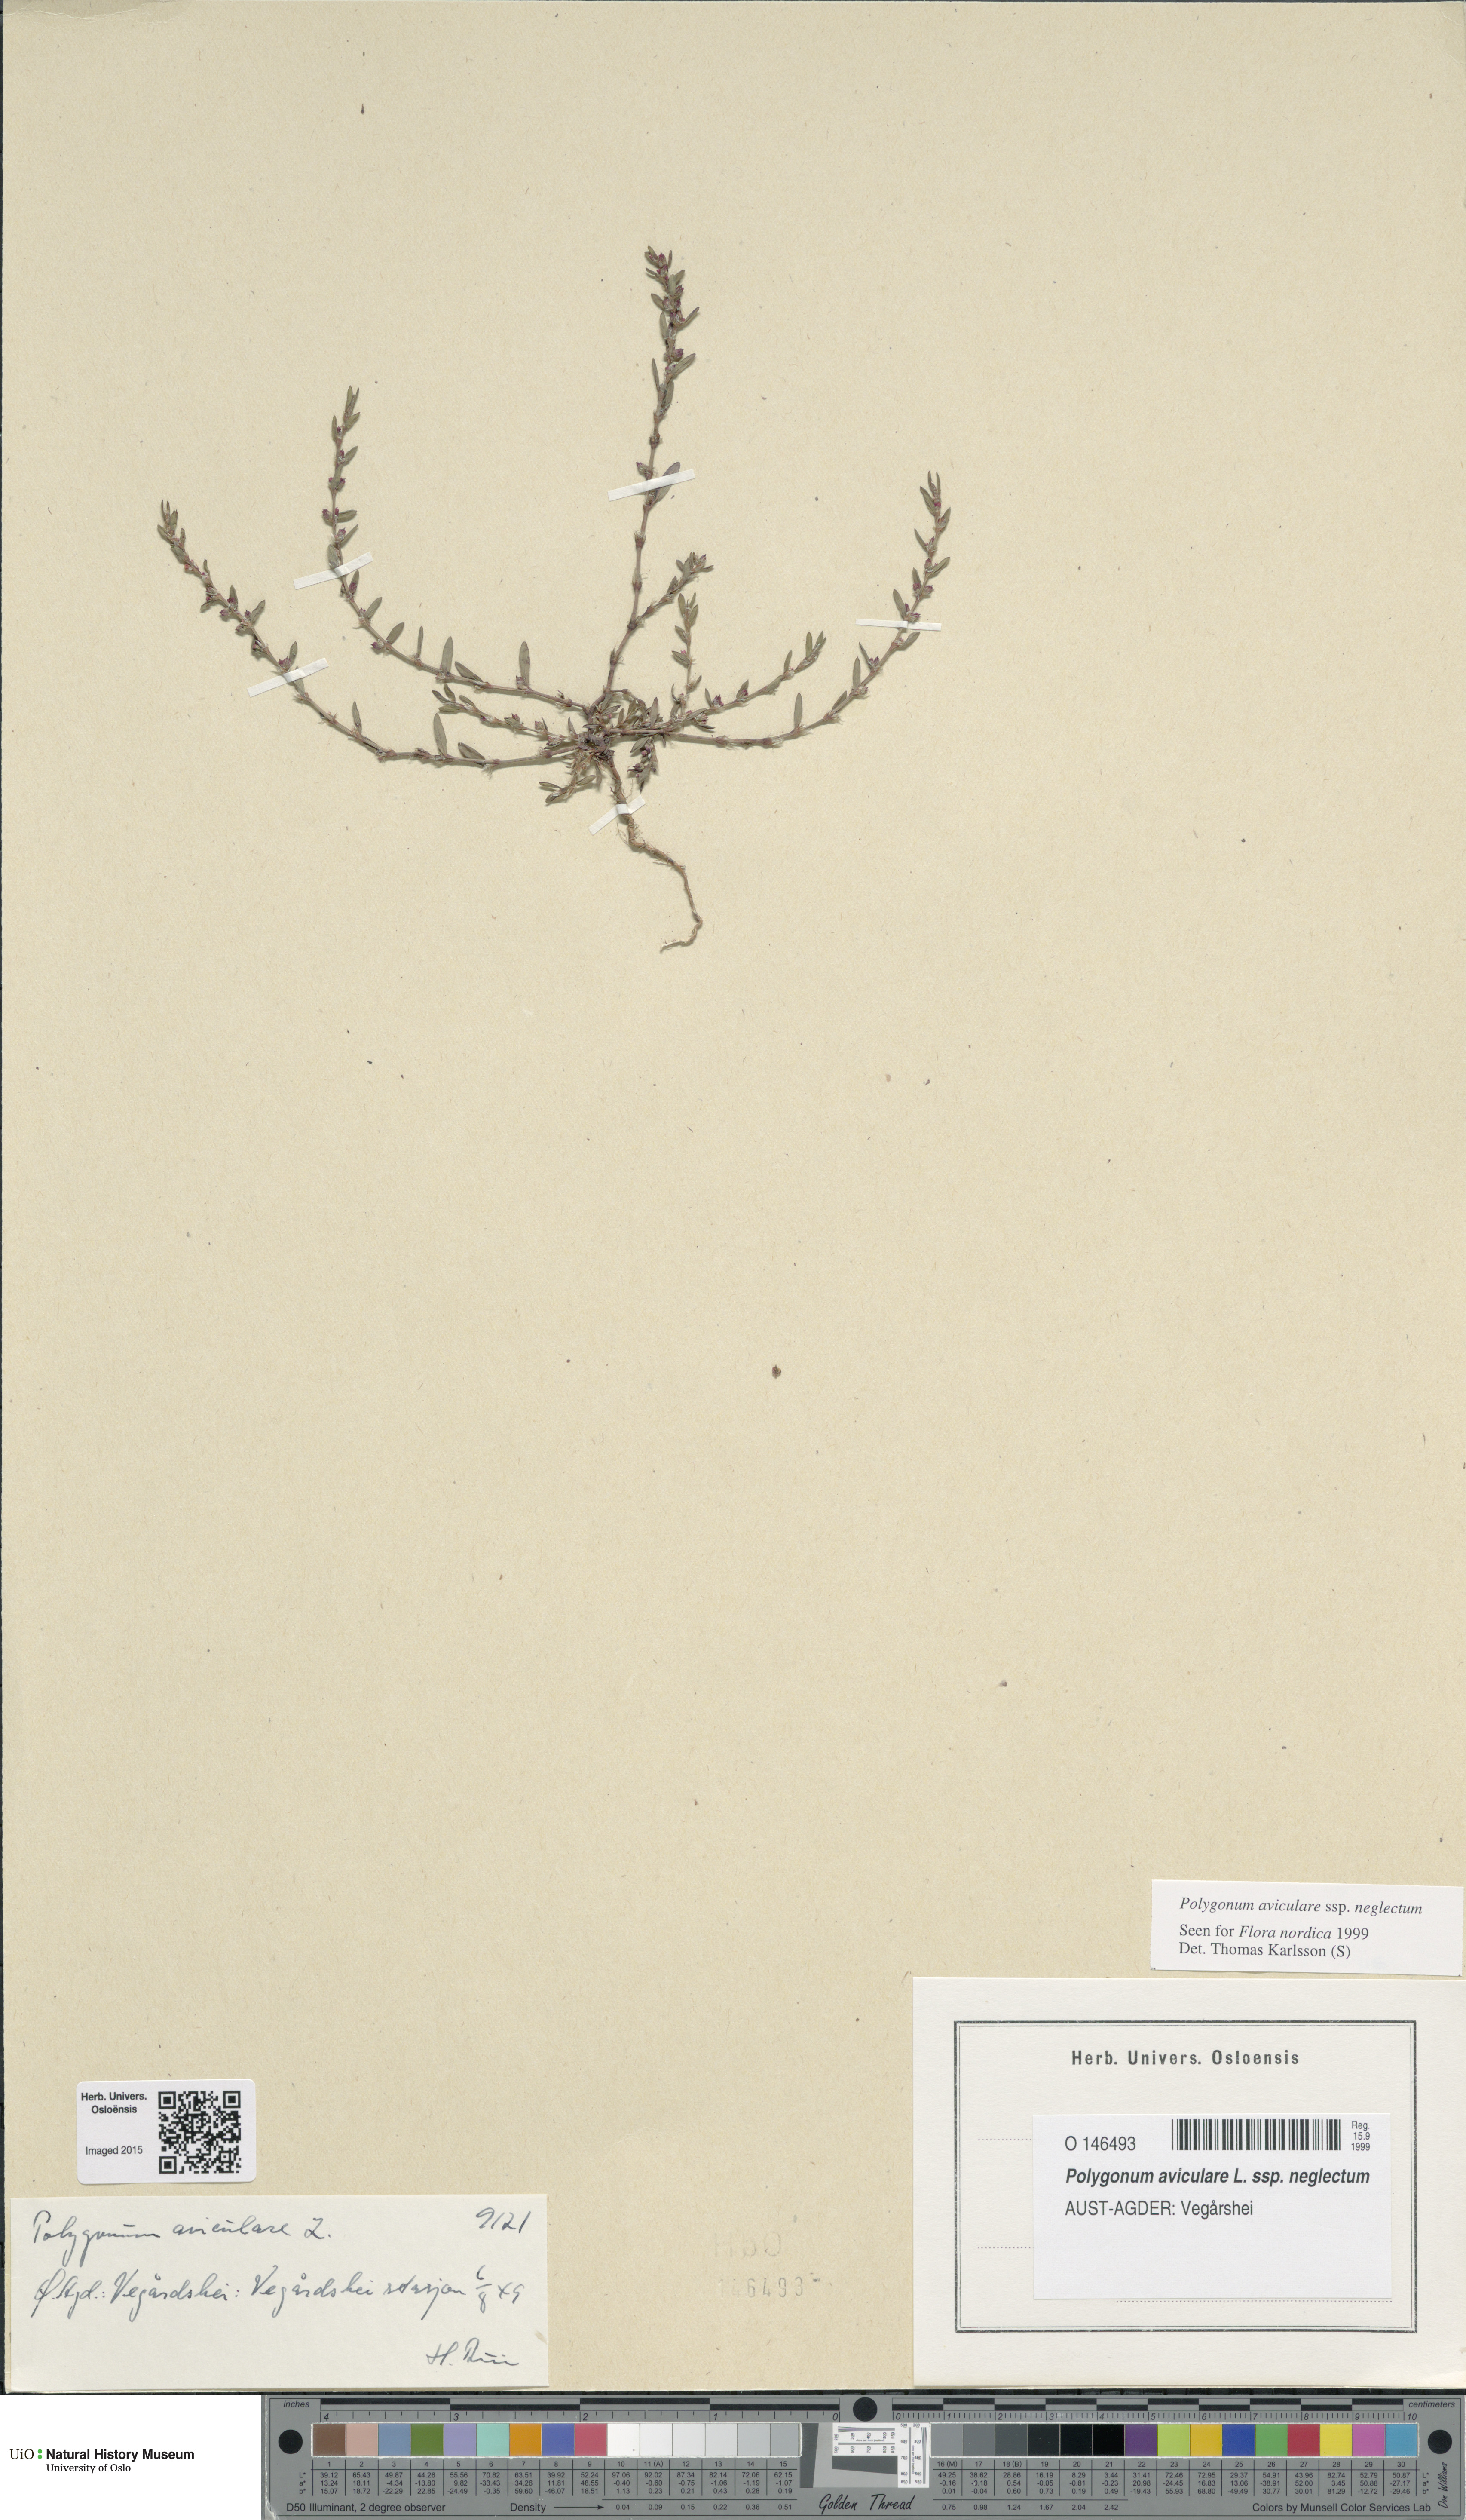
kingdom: Plantae
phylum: Tracheophyta
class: Magnoliopsida
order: Caryophyllales
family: Polygonaceae
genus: Polygonum
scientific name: Polygonum aviculare
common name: Prostrate knotweed
